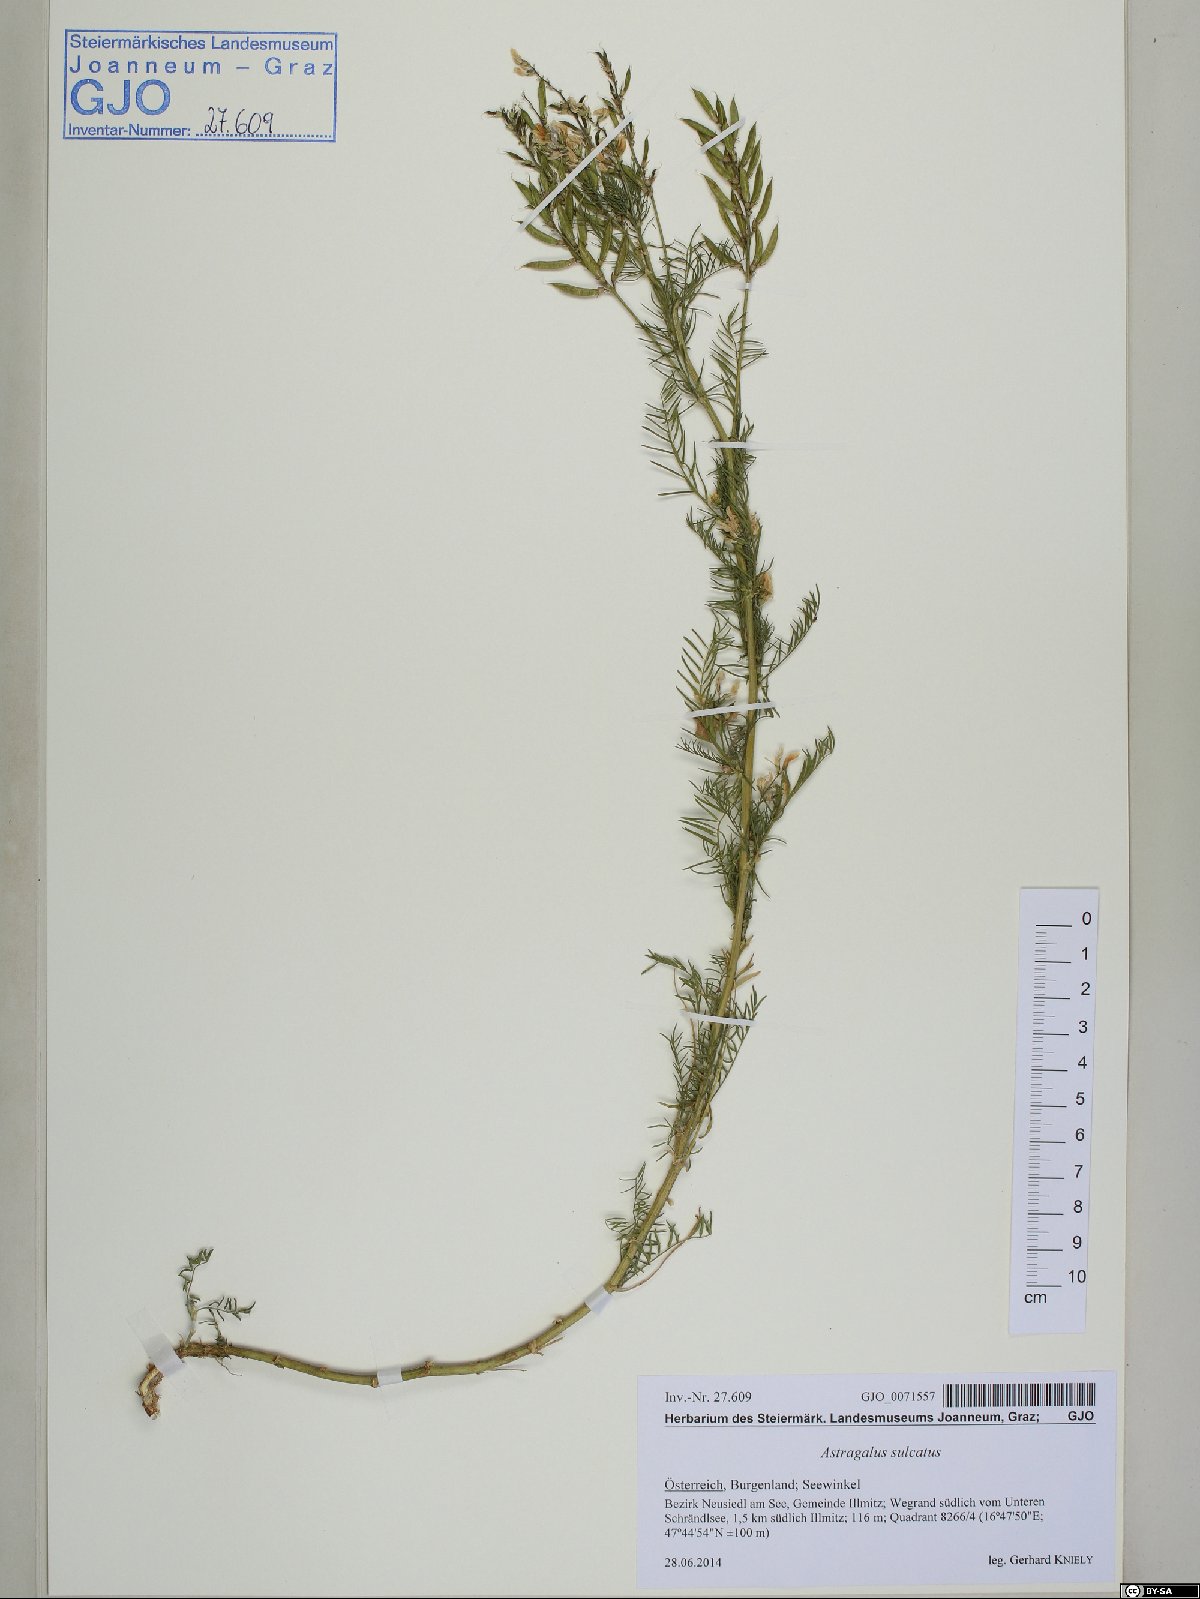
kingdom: Plantae
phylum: Tracheophyta
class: Magnoliopsida
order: Fabales
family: Fabaceae
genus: Astragalus
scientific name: Astragalus sulcatus
